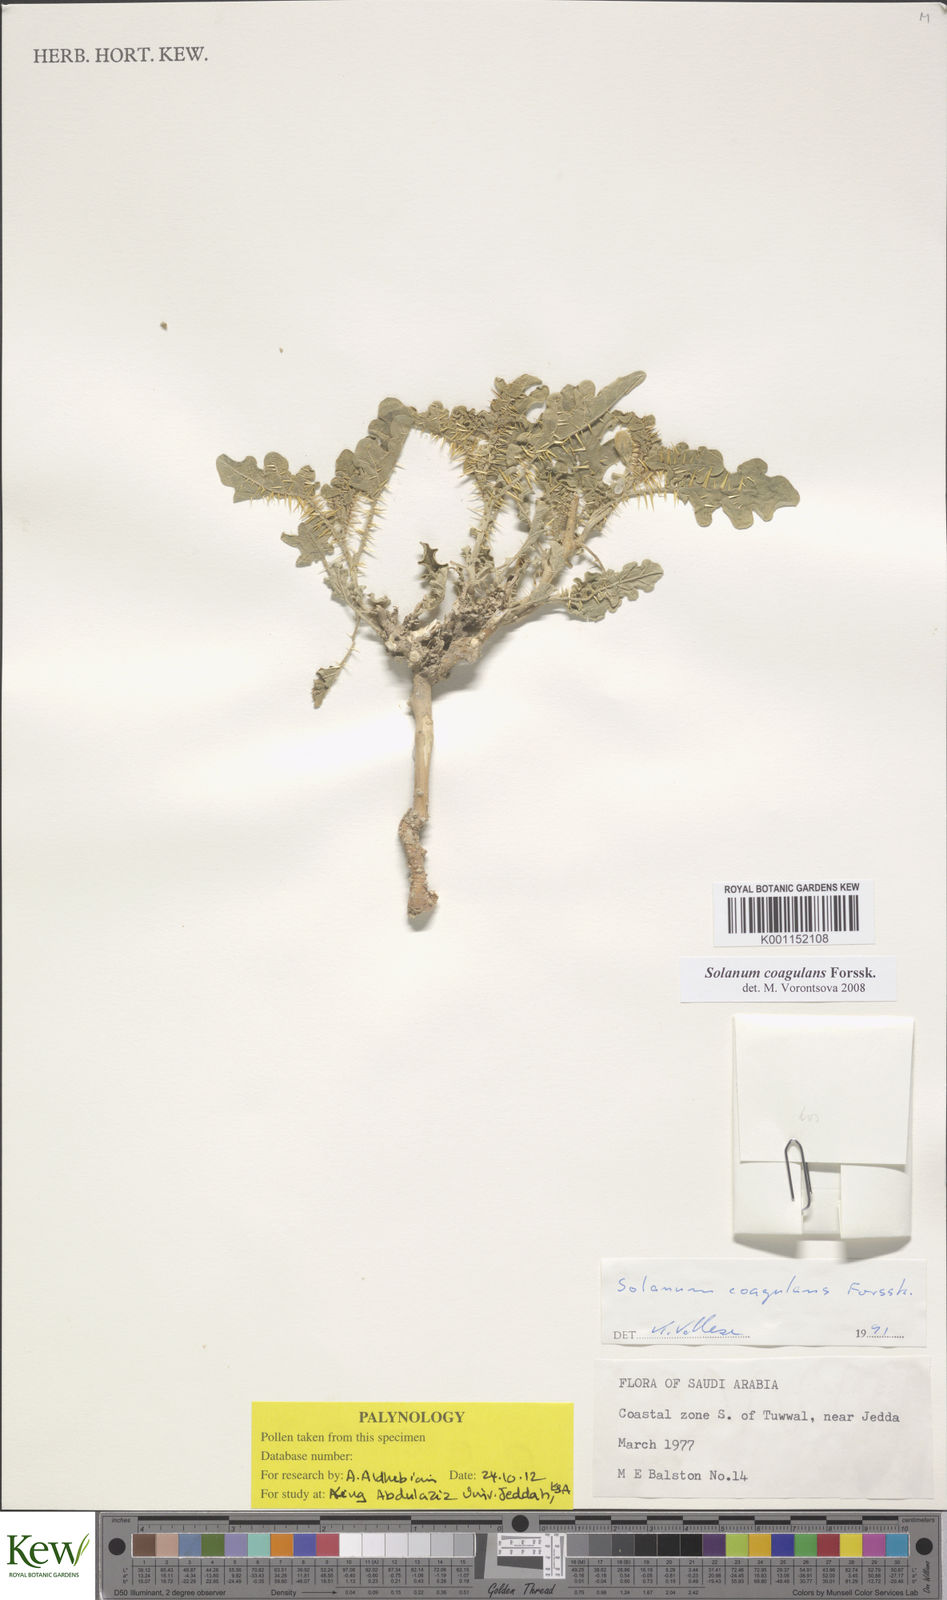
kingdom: Plantae
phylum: Tracheophyta
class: Magnoliopsida
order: Solanales
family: Solanaceae
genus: Solanum
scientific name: Solanum coagulans
